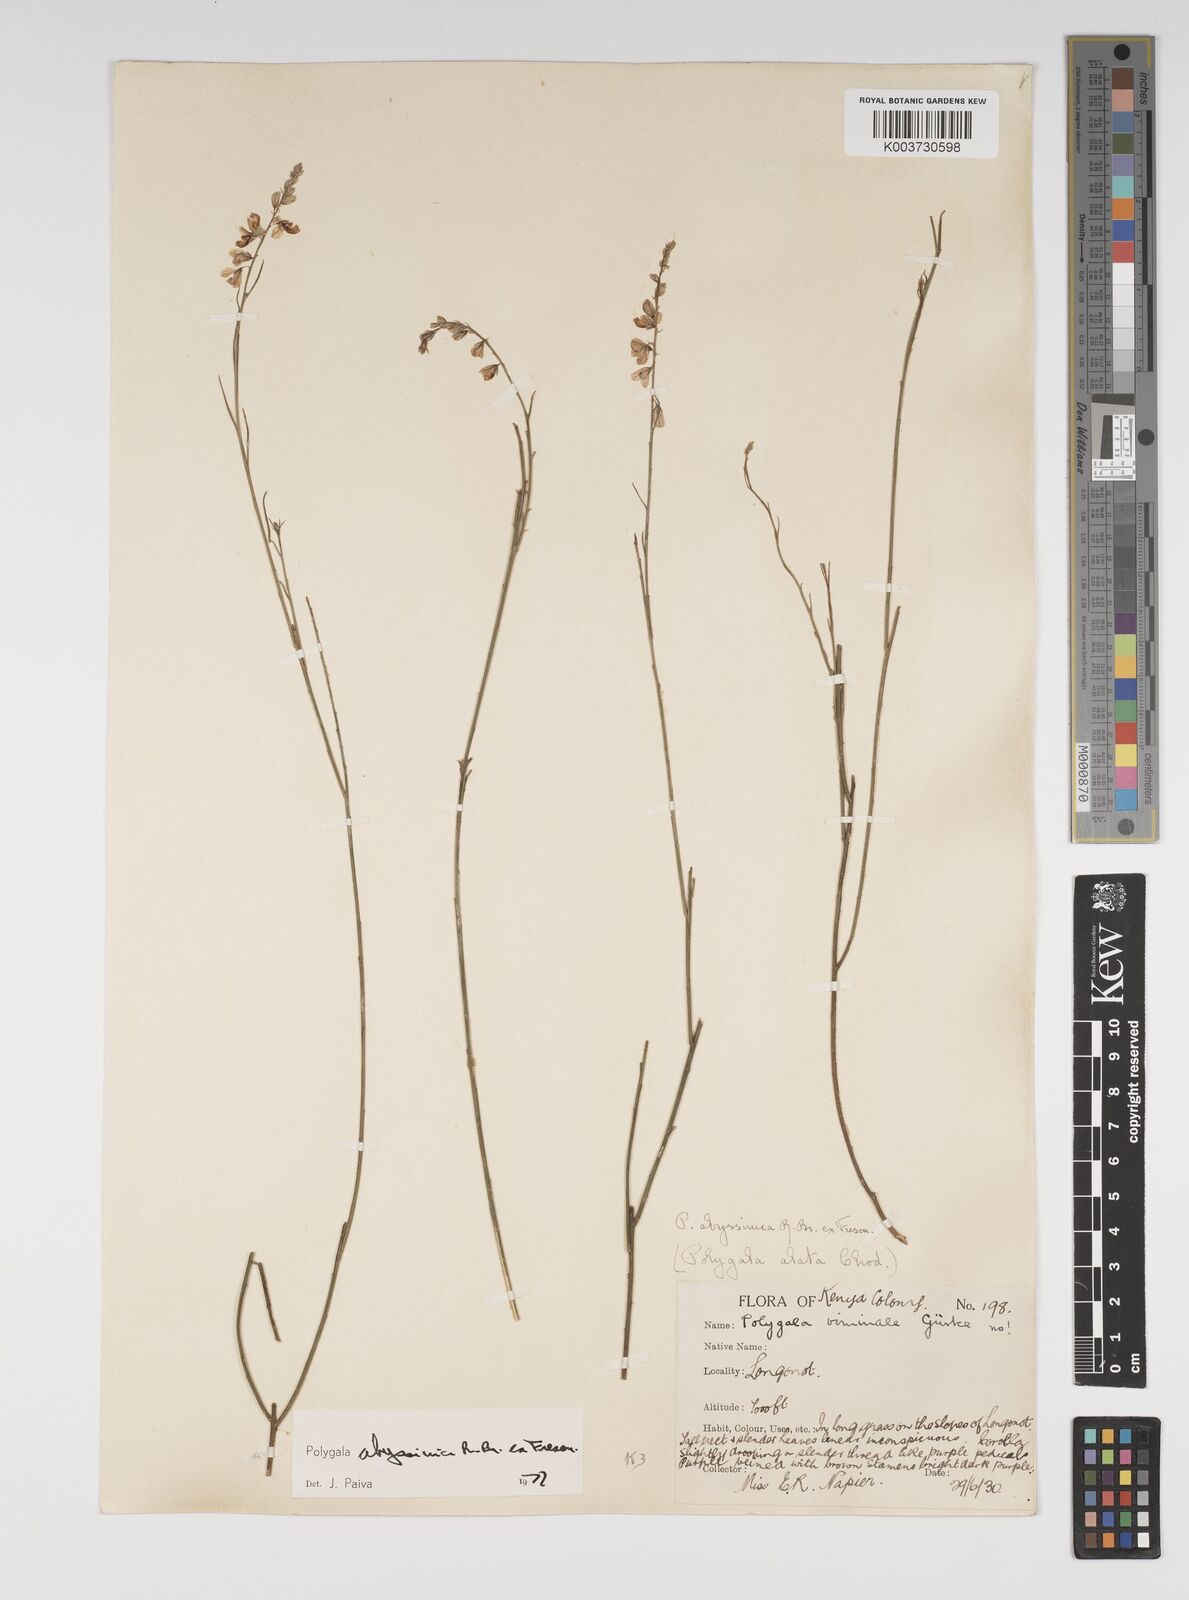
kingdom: Plantae
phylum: Tracheophyta
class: Magnoliopsida
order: Fabales
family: Polygalaceae
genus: Polygala
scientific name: Polygala abyssinica
